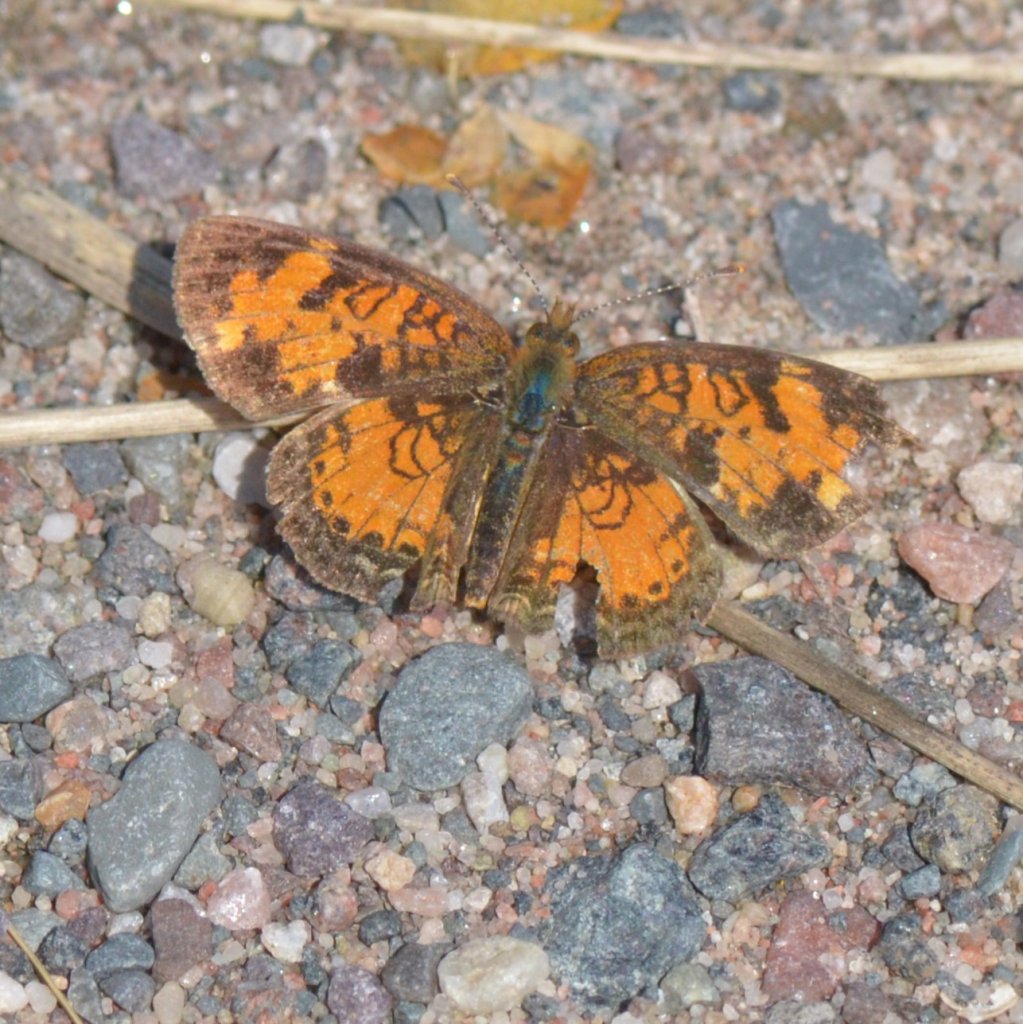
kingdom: Animalia
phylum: Arthropoda
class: Insecta
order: Lepidoptera
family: Nymphalidae
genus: Phyciodes
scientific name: Phyciodes tharos
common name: Northern Crescent
